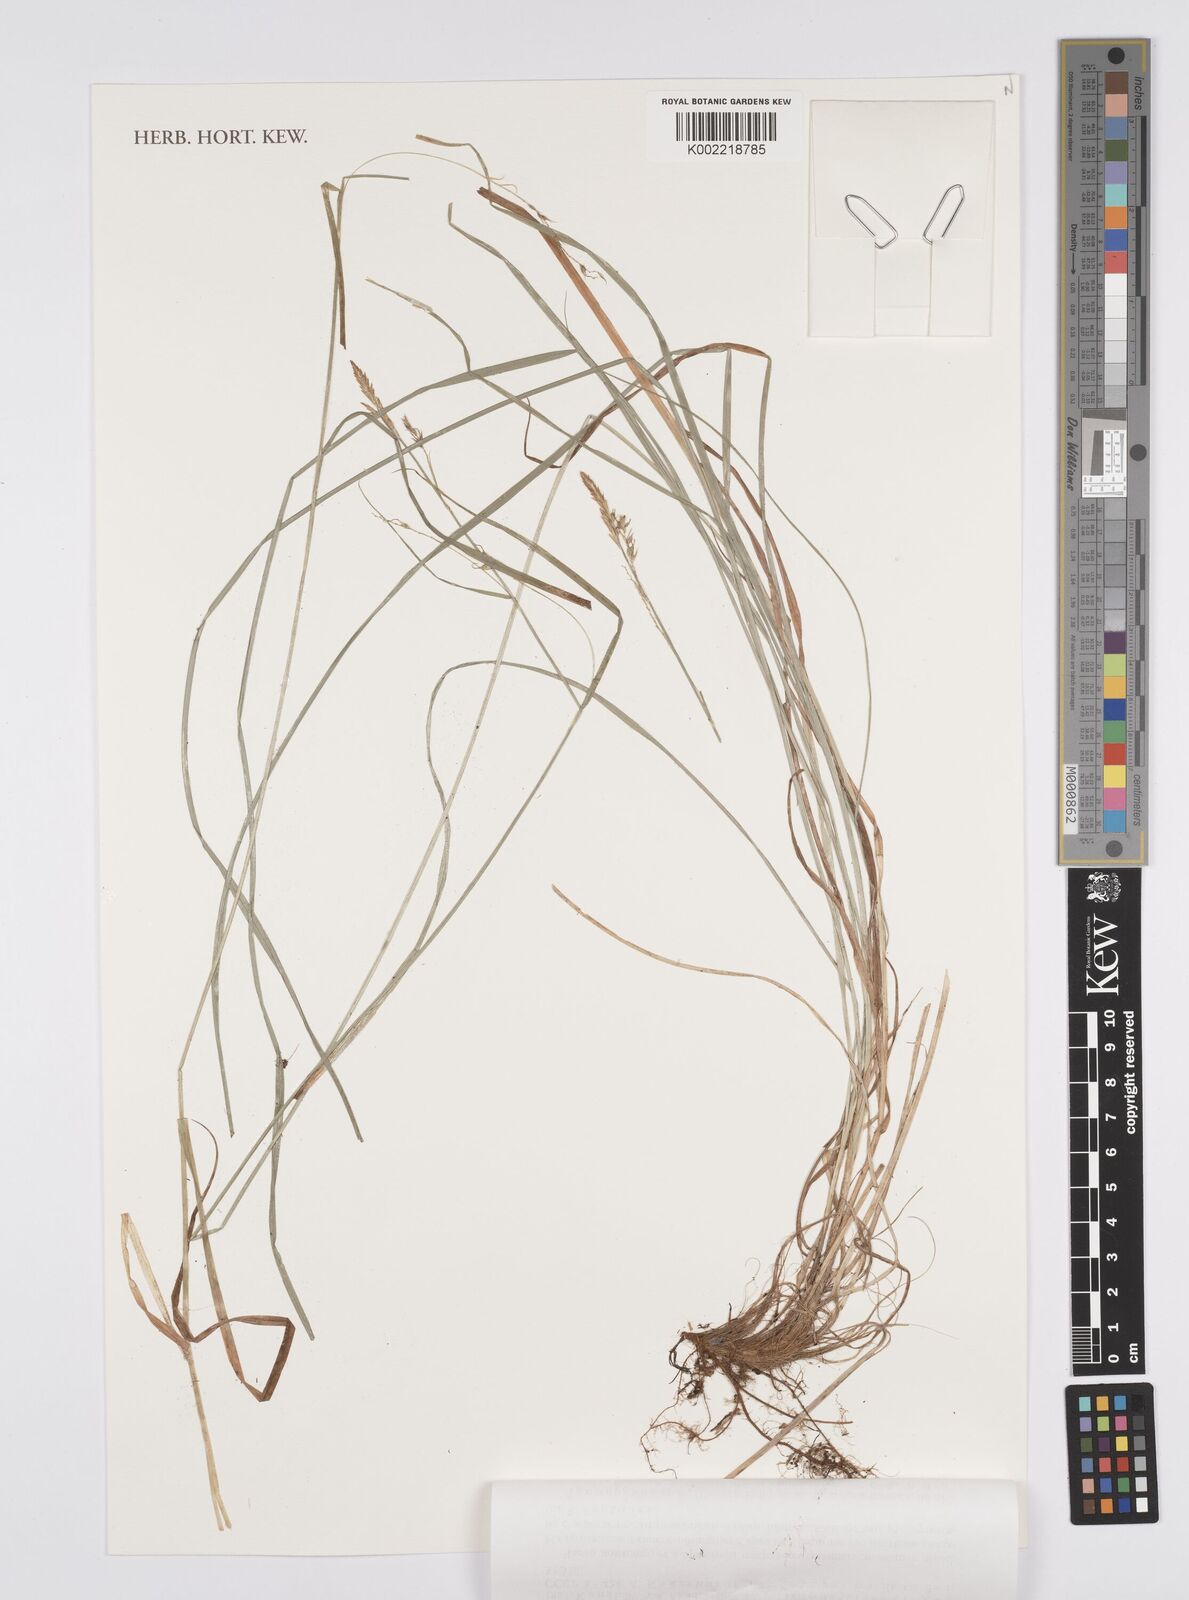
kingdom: Plantae
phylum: Tracheophyta
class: Liliopsida
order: Poales
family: Cyperaceae
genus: Carex
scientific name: Carex arnellii
